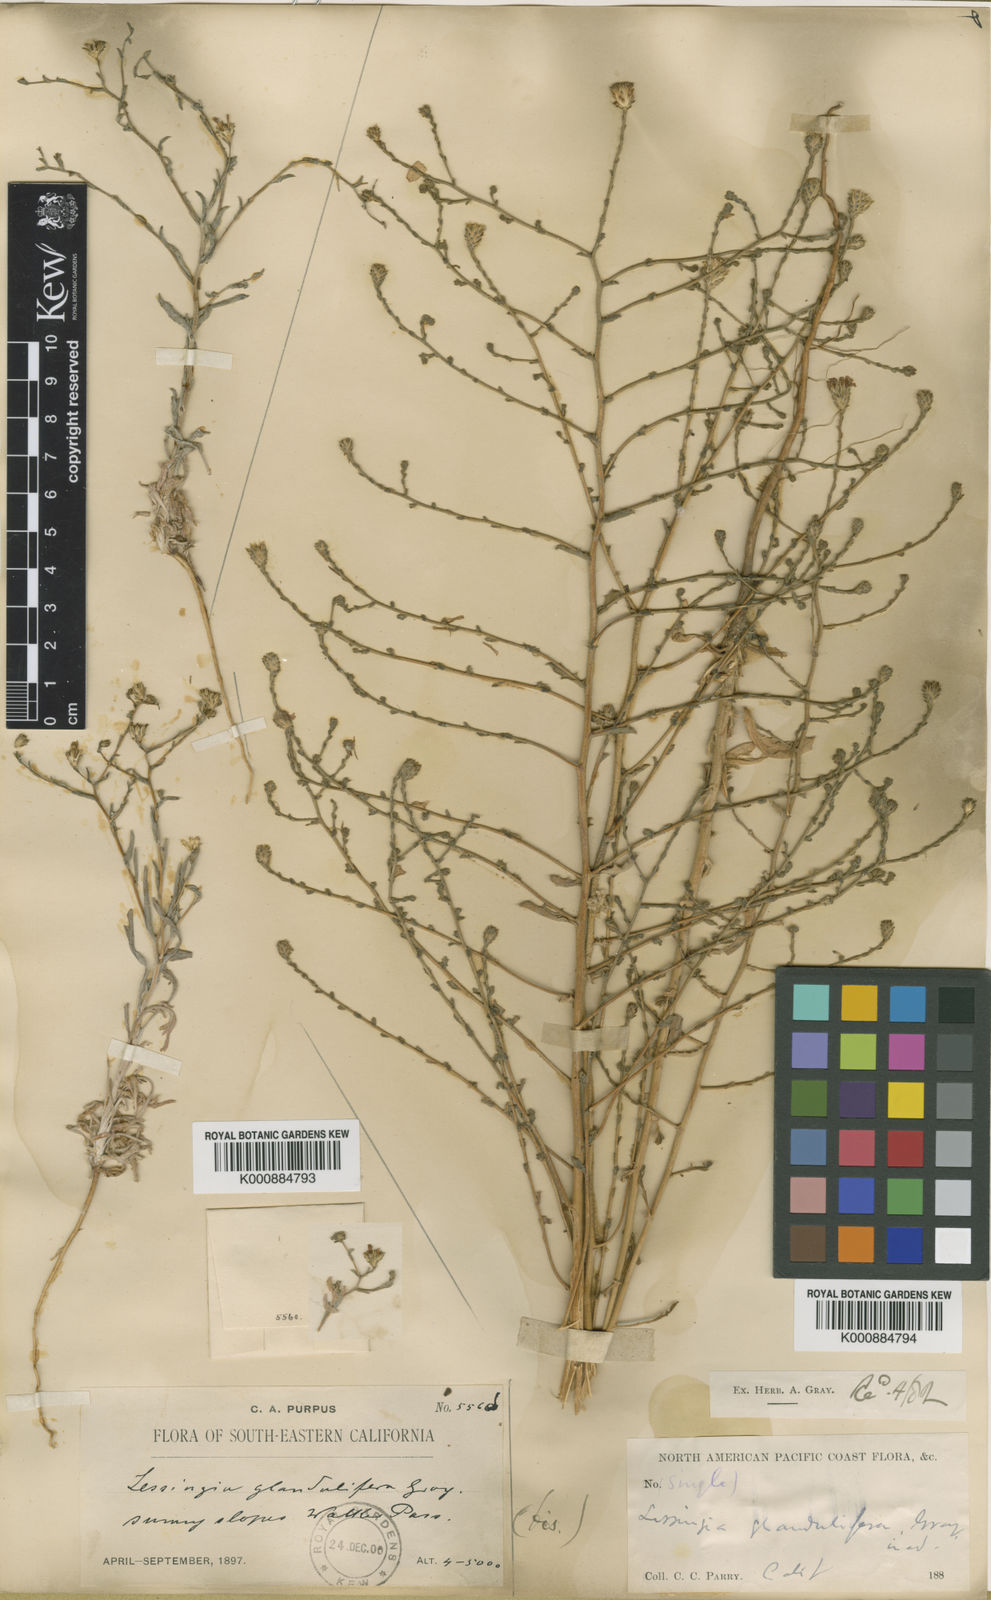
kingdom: Plantae
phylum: Tracheophyta
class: Magnoliopsida
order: Asterales
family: Asteraceae
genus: Lessingia
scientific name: Lessingia
